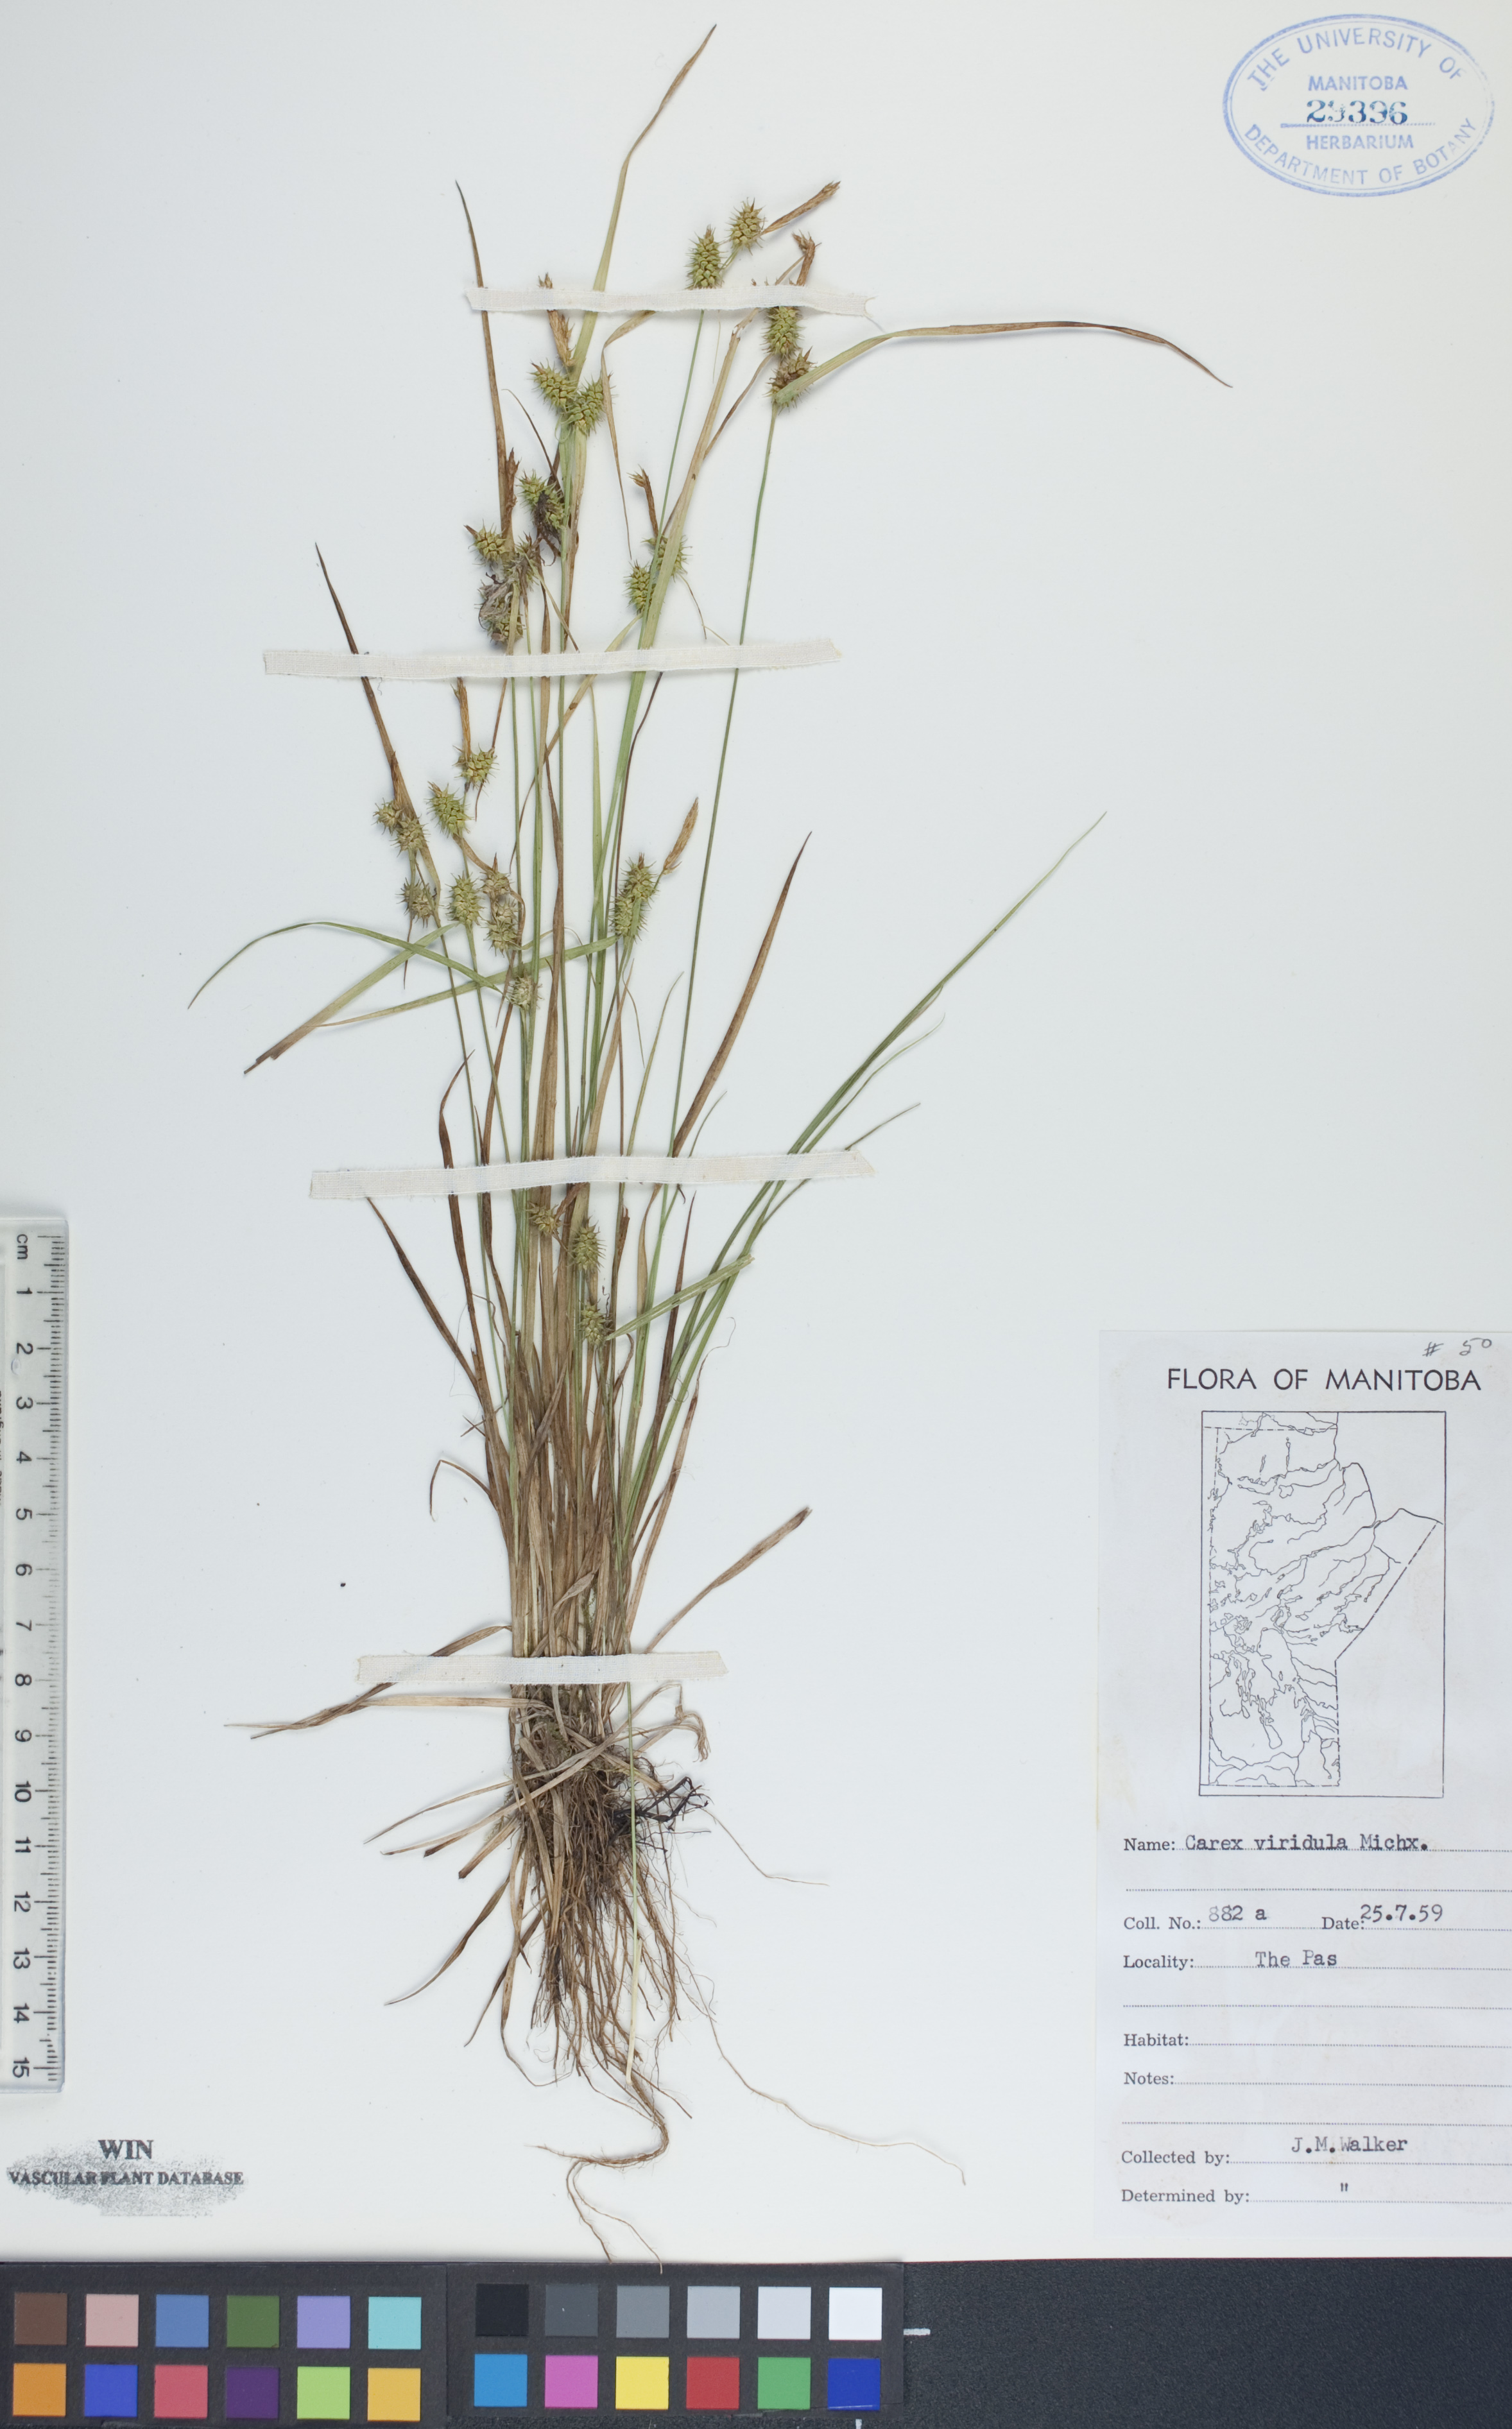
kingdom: Plantae
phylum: Tracheophyta
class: Liliopsida
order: Poales
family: Cyperaceae
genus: Carex
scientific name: Carex oederi
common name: Common & small-fruited yellow-sedge
